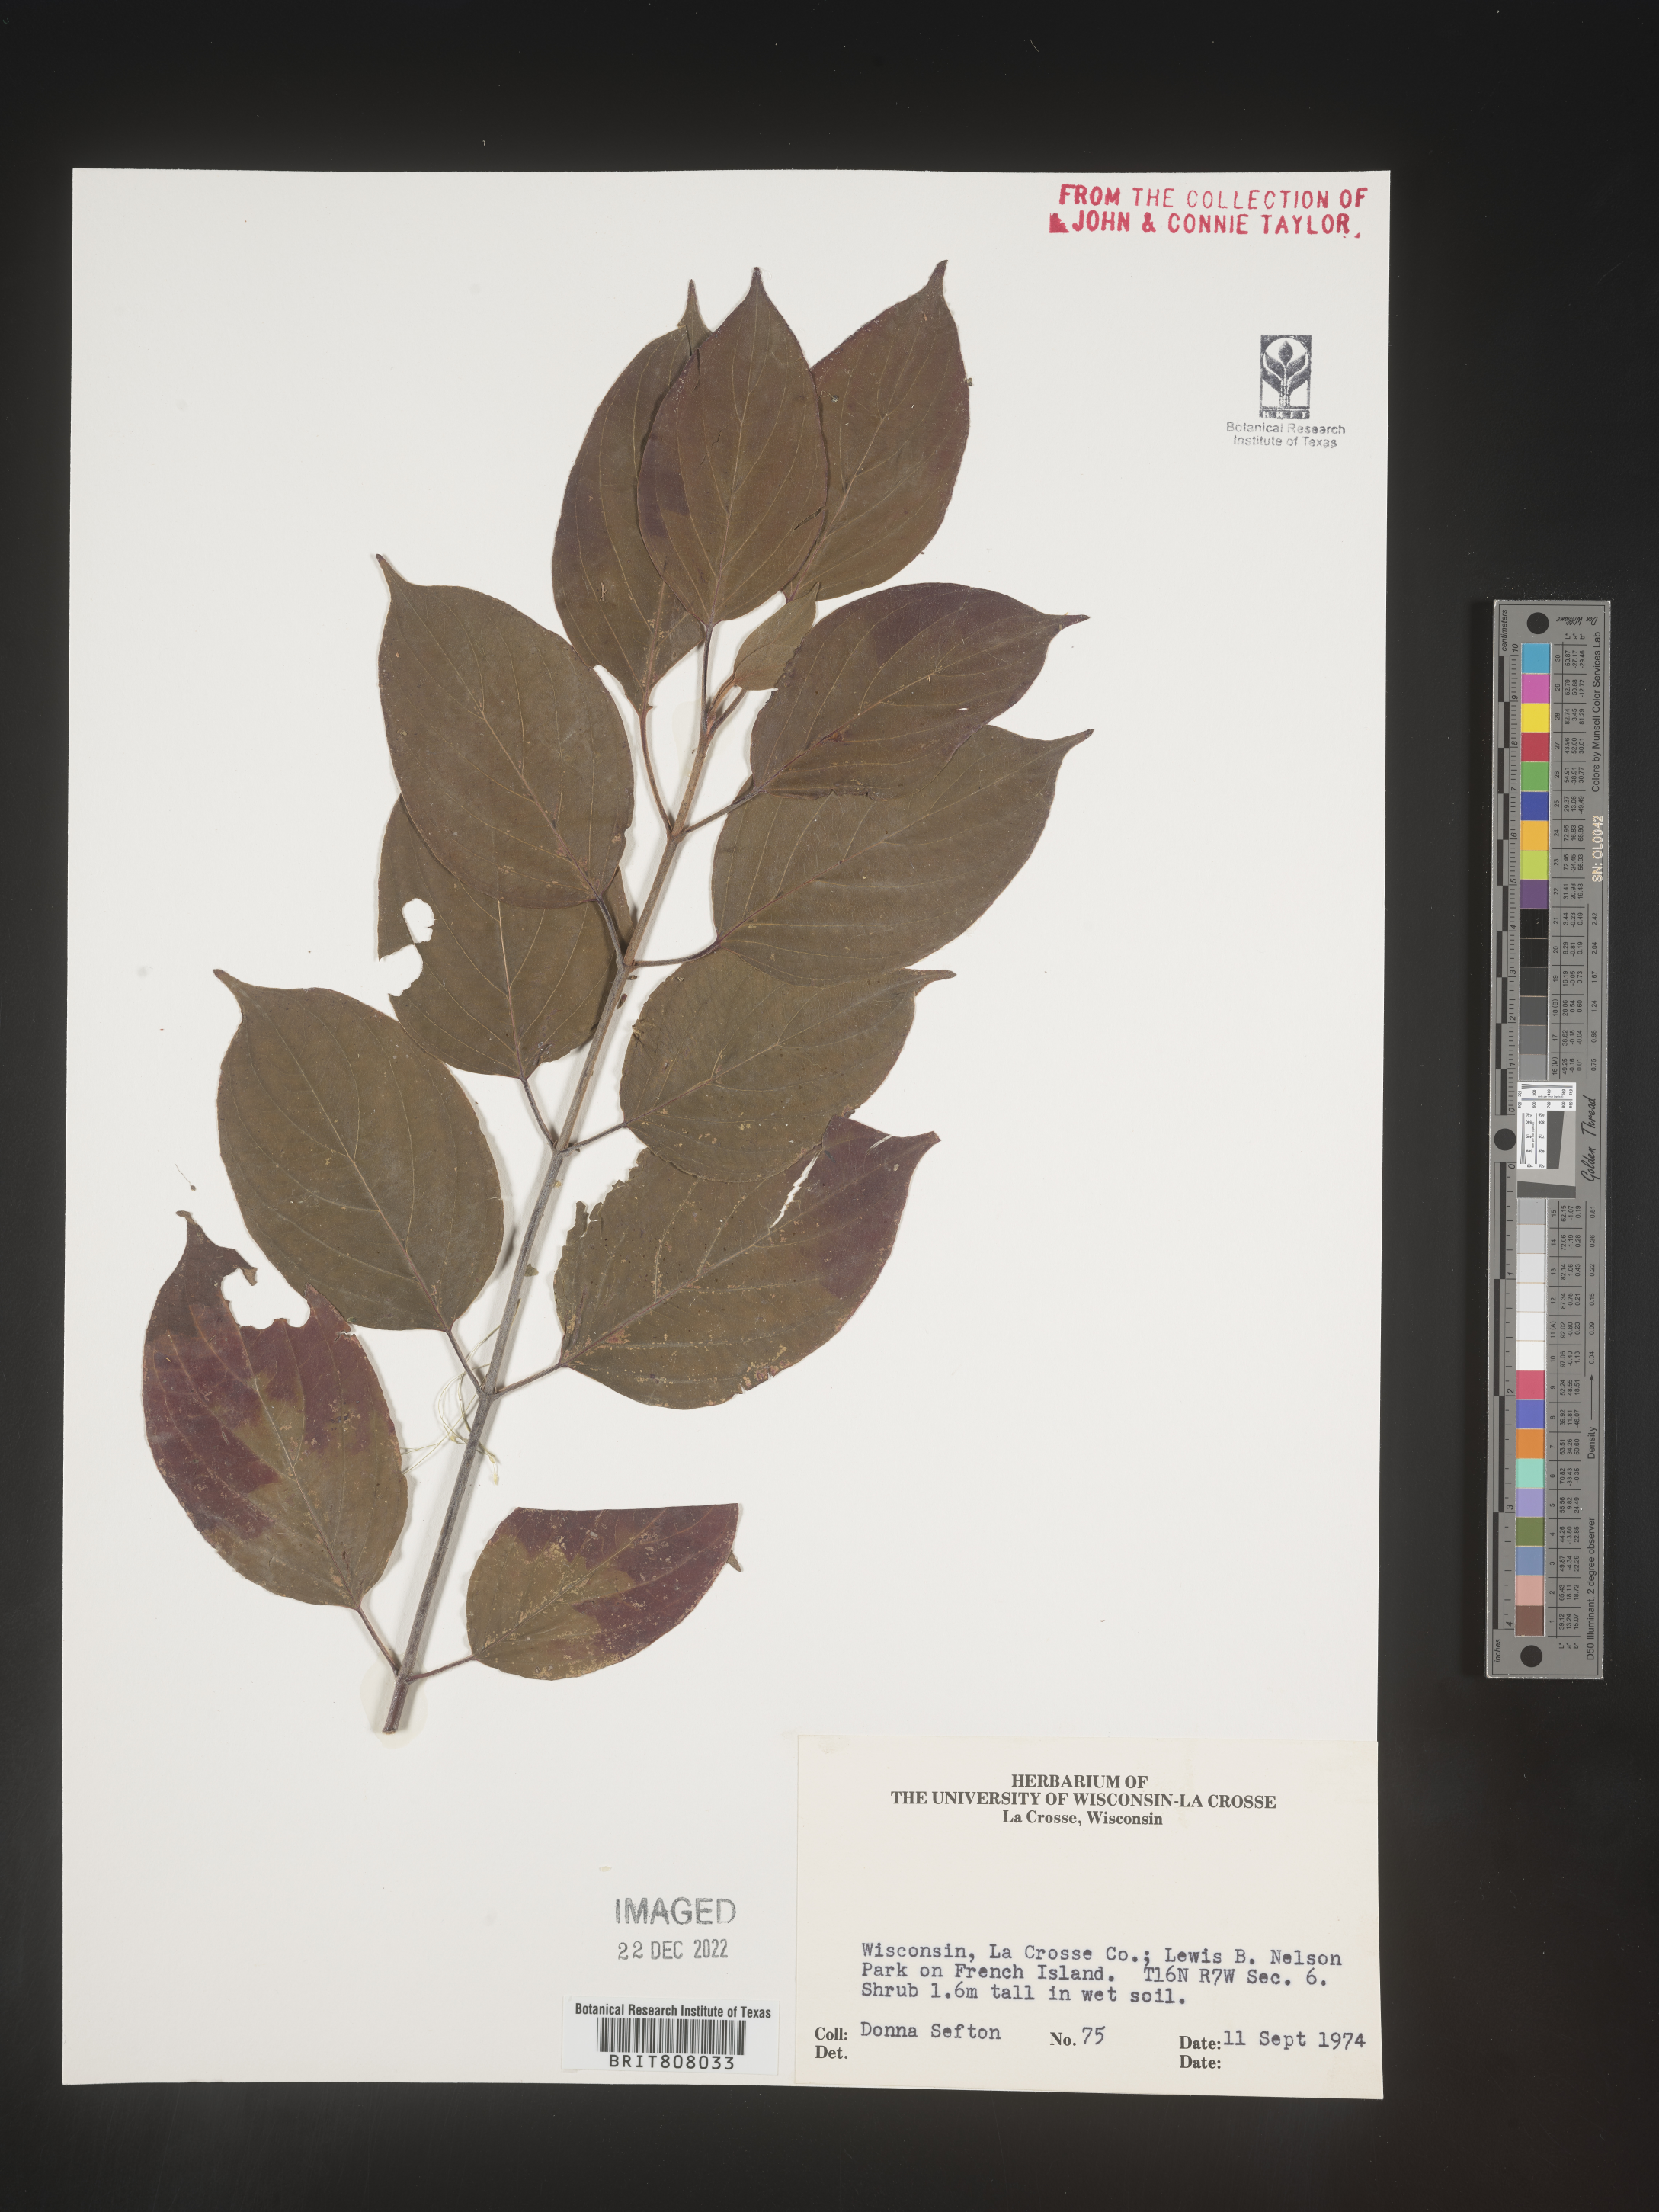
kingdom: Plantae
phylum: Tracheophyta
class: Magnoliopsida
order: Cornales
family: Cornaceae
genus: Cornus
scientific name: Cornus
